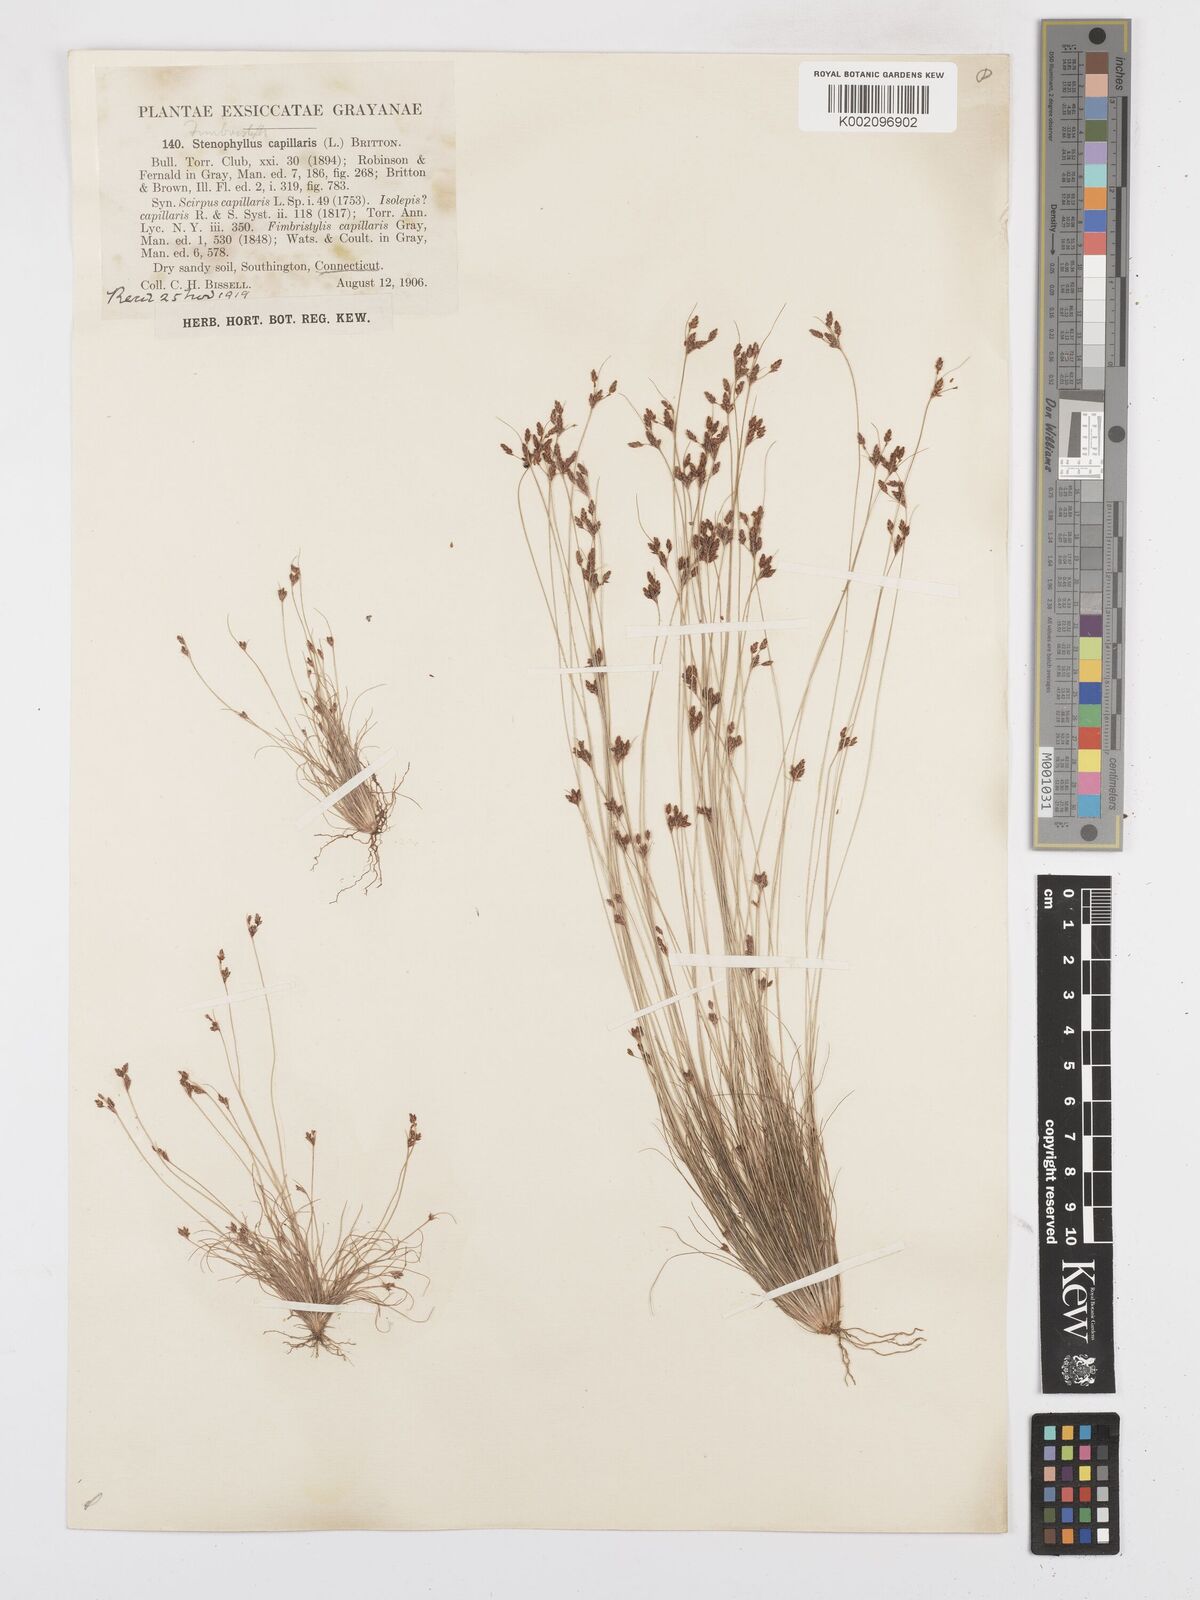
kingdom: Plantae
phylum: Tracheophyta
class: Liliopsida
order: Poales
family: Cyperaceae
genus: Bulbostylis
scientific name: Bulbostylis capillaris
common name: Densetuft hairsedge
